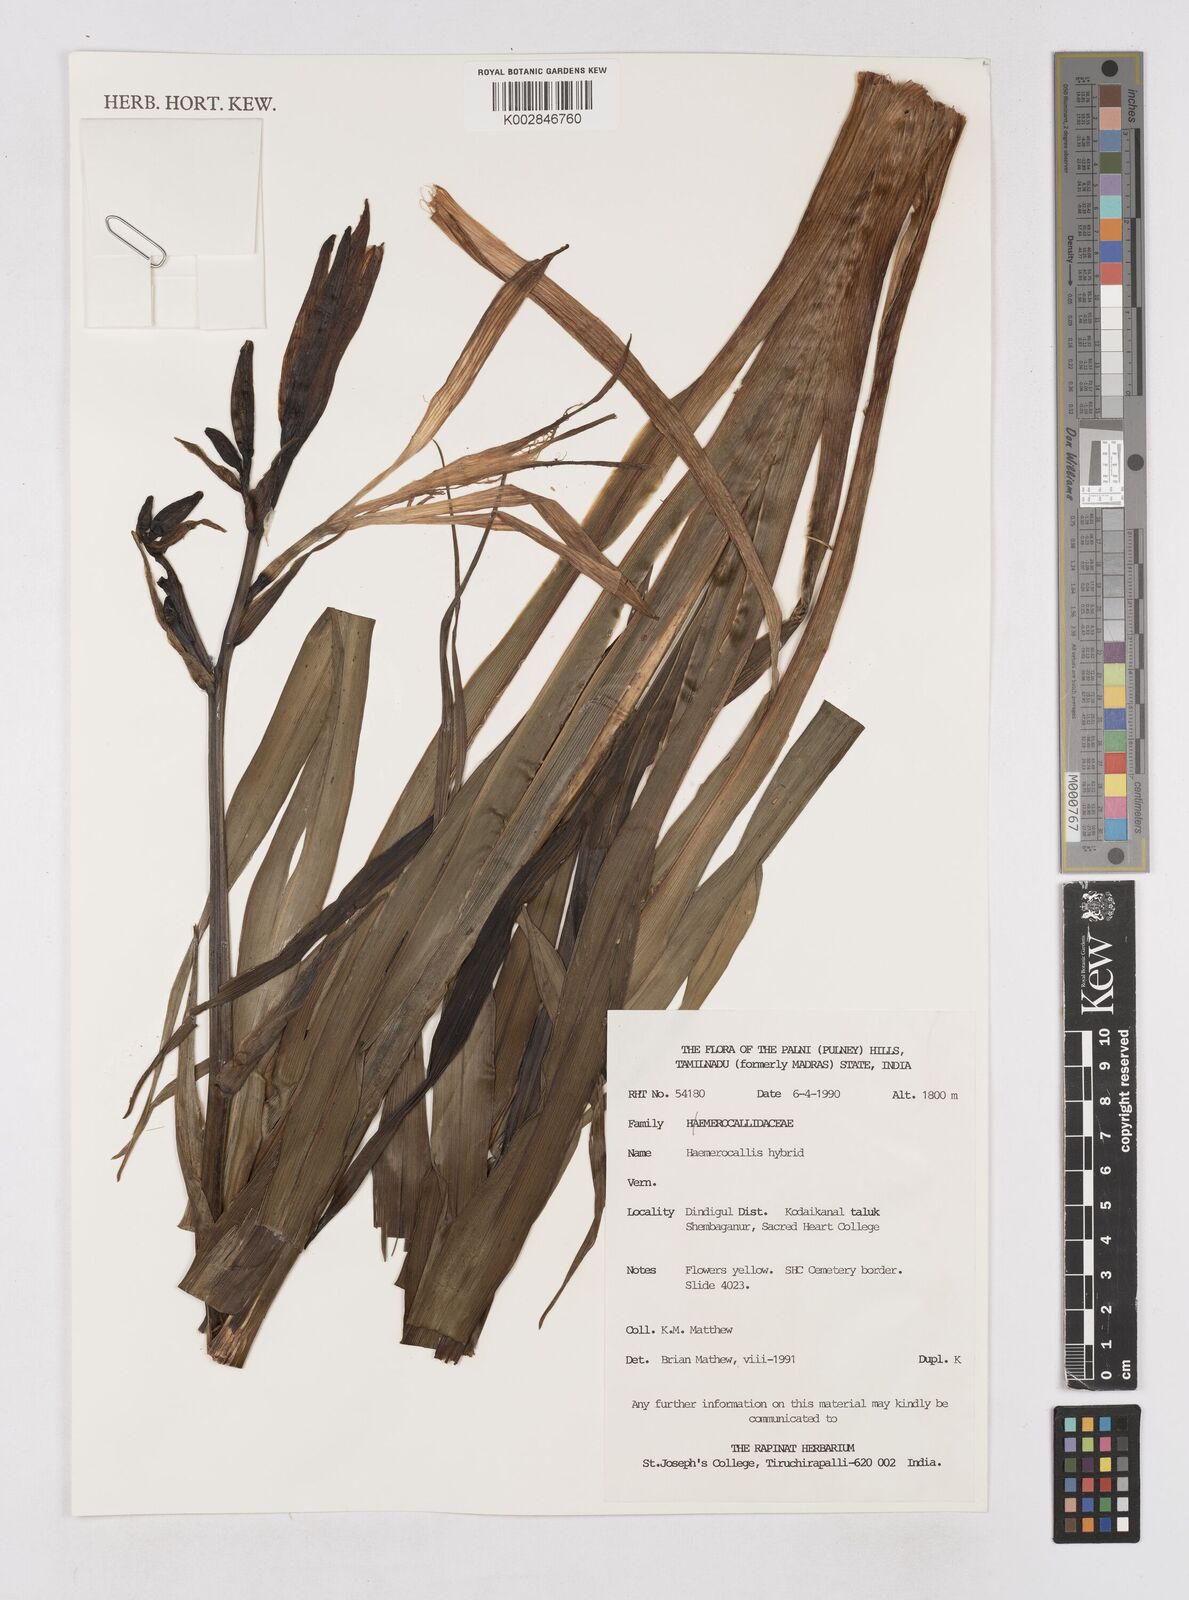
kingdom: Plantae
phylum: Tracheophyta
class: Liliopsida
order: Asparagales
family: Asphodelaceae
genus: Hemerocallis
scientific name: Hemerocallis
